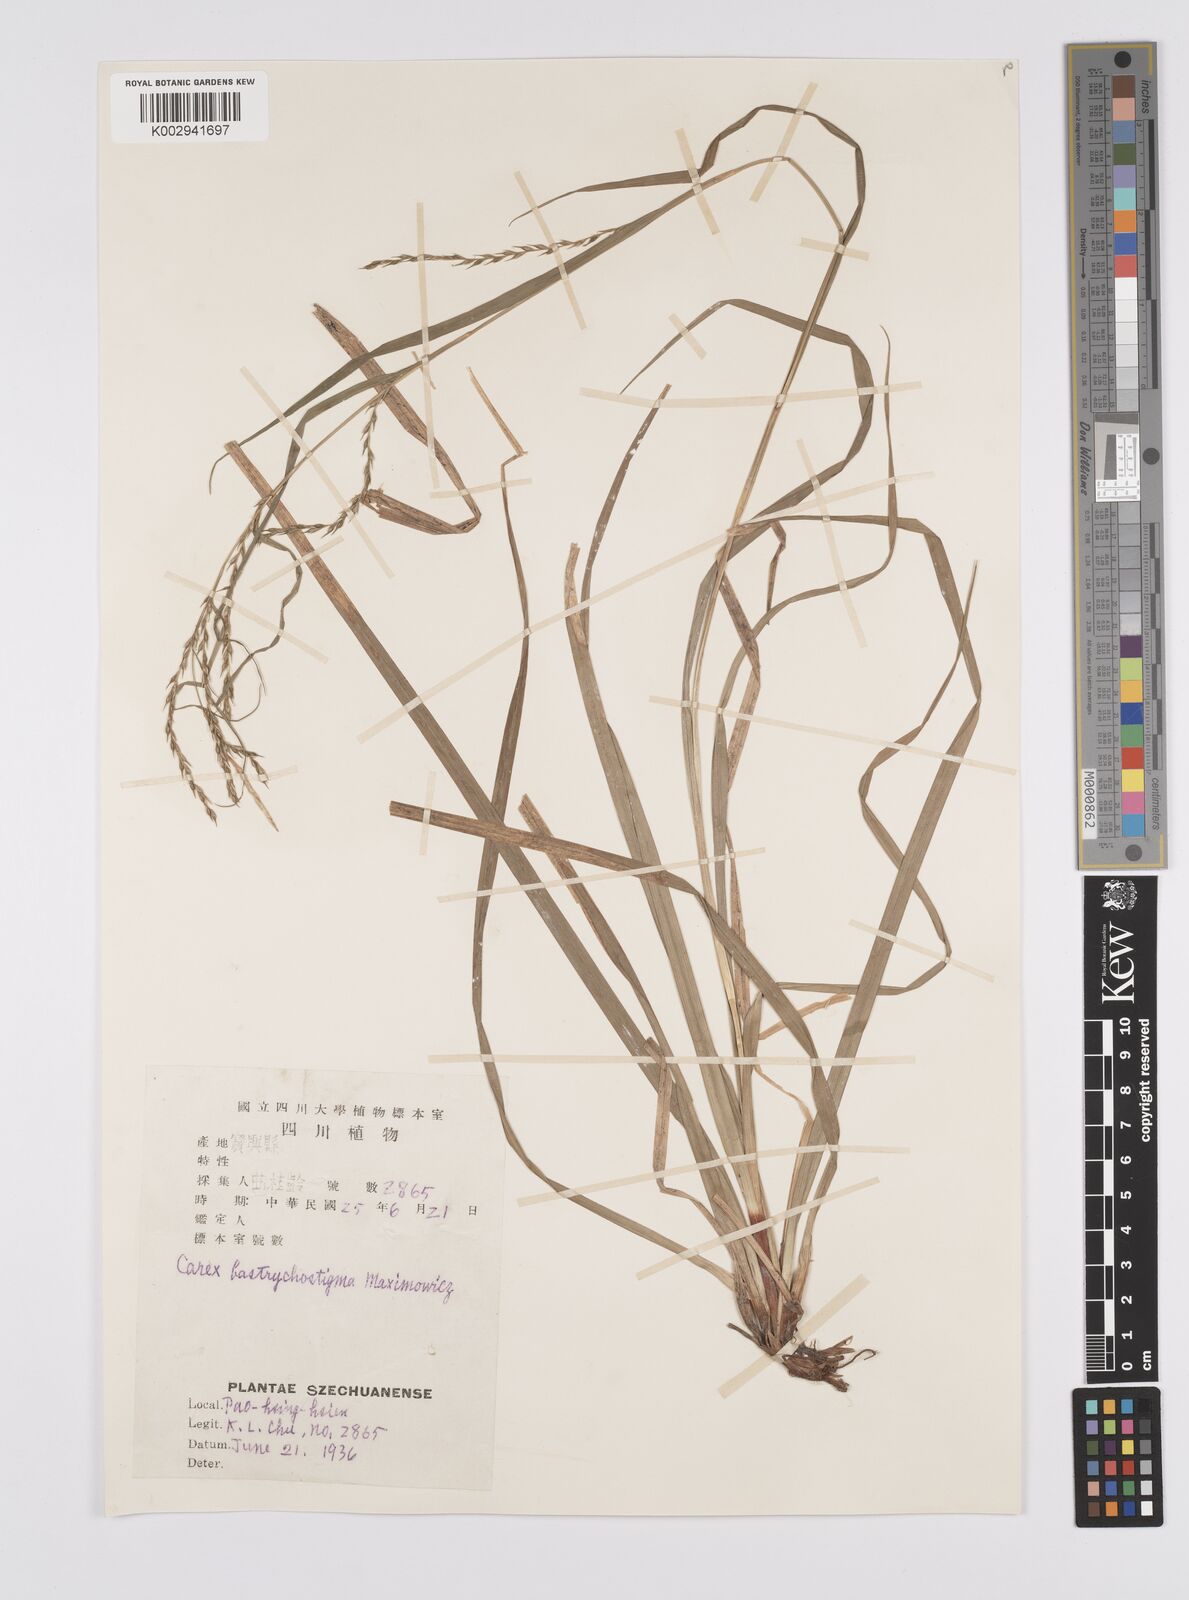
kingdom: Plantae
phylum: Tracheophyta
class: Liliopsida
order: Poales
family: Cyperaceae
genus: Carex
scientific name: Carex finitima
